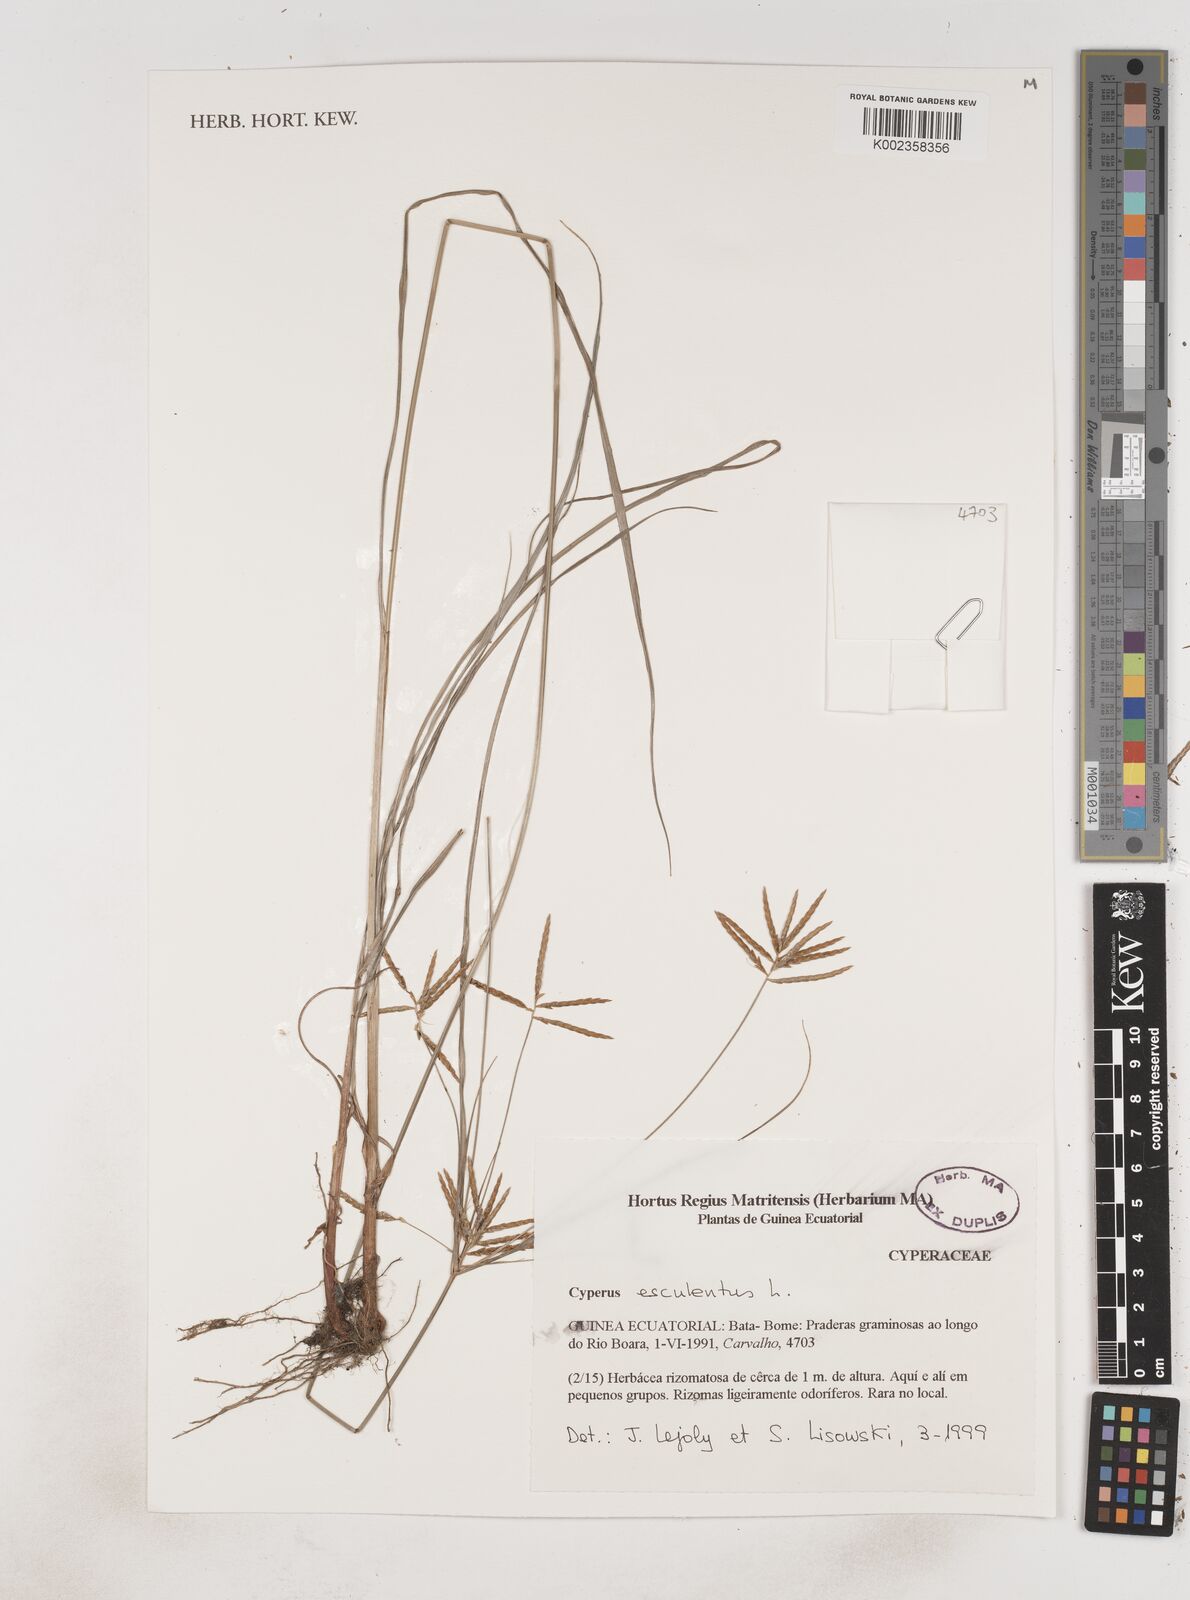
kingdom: Plantae
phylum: Tracheophyta
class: Liliopsida
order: Poales
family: Cyperaceae
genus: Cyperus
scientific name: Cyperus esculentus
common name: Yellow nutsedge
